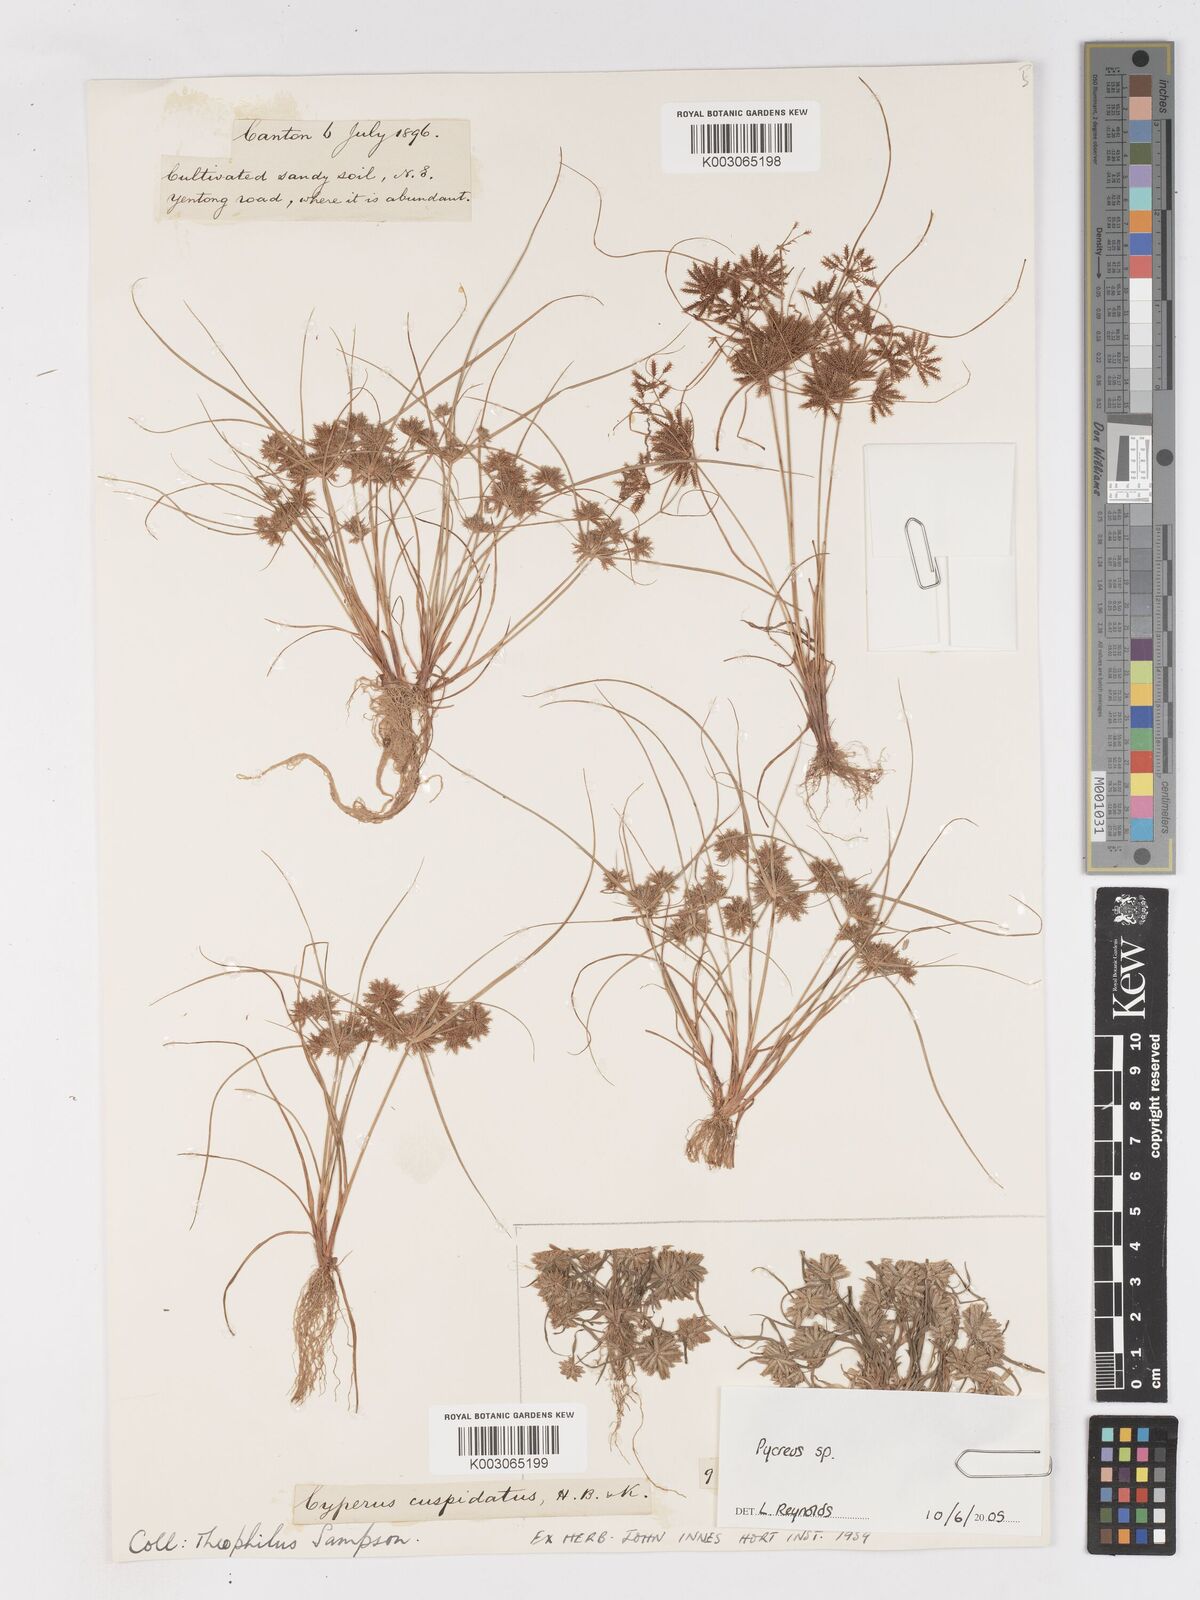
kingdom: Plantae
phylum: Tracheophyta
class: Liliopsida
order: Poales
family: Cyperaceae
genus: Cyperus
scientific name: Cyperus cuspidatus
